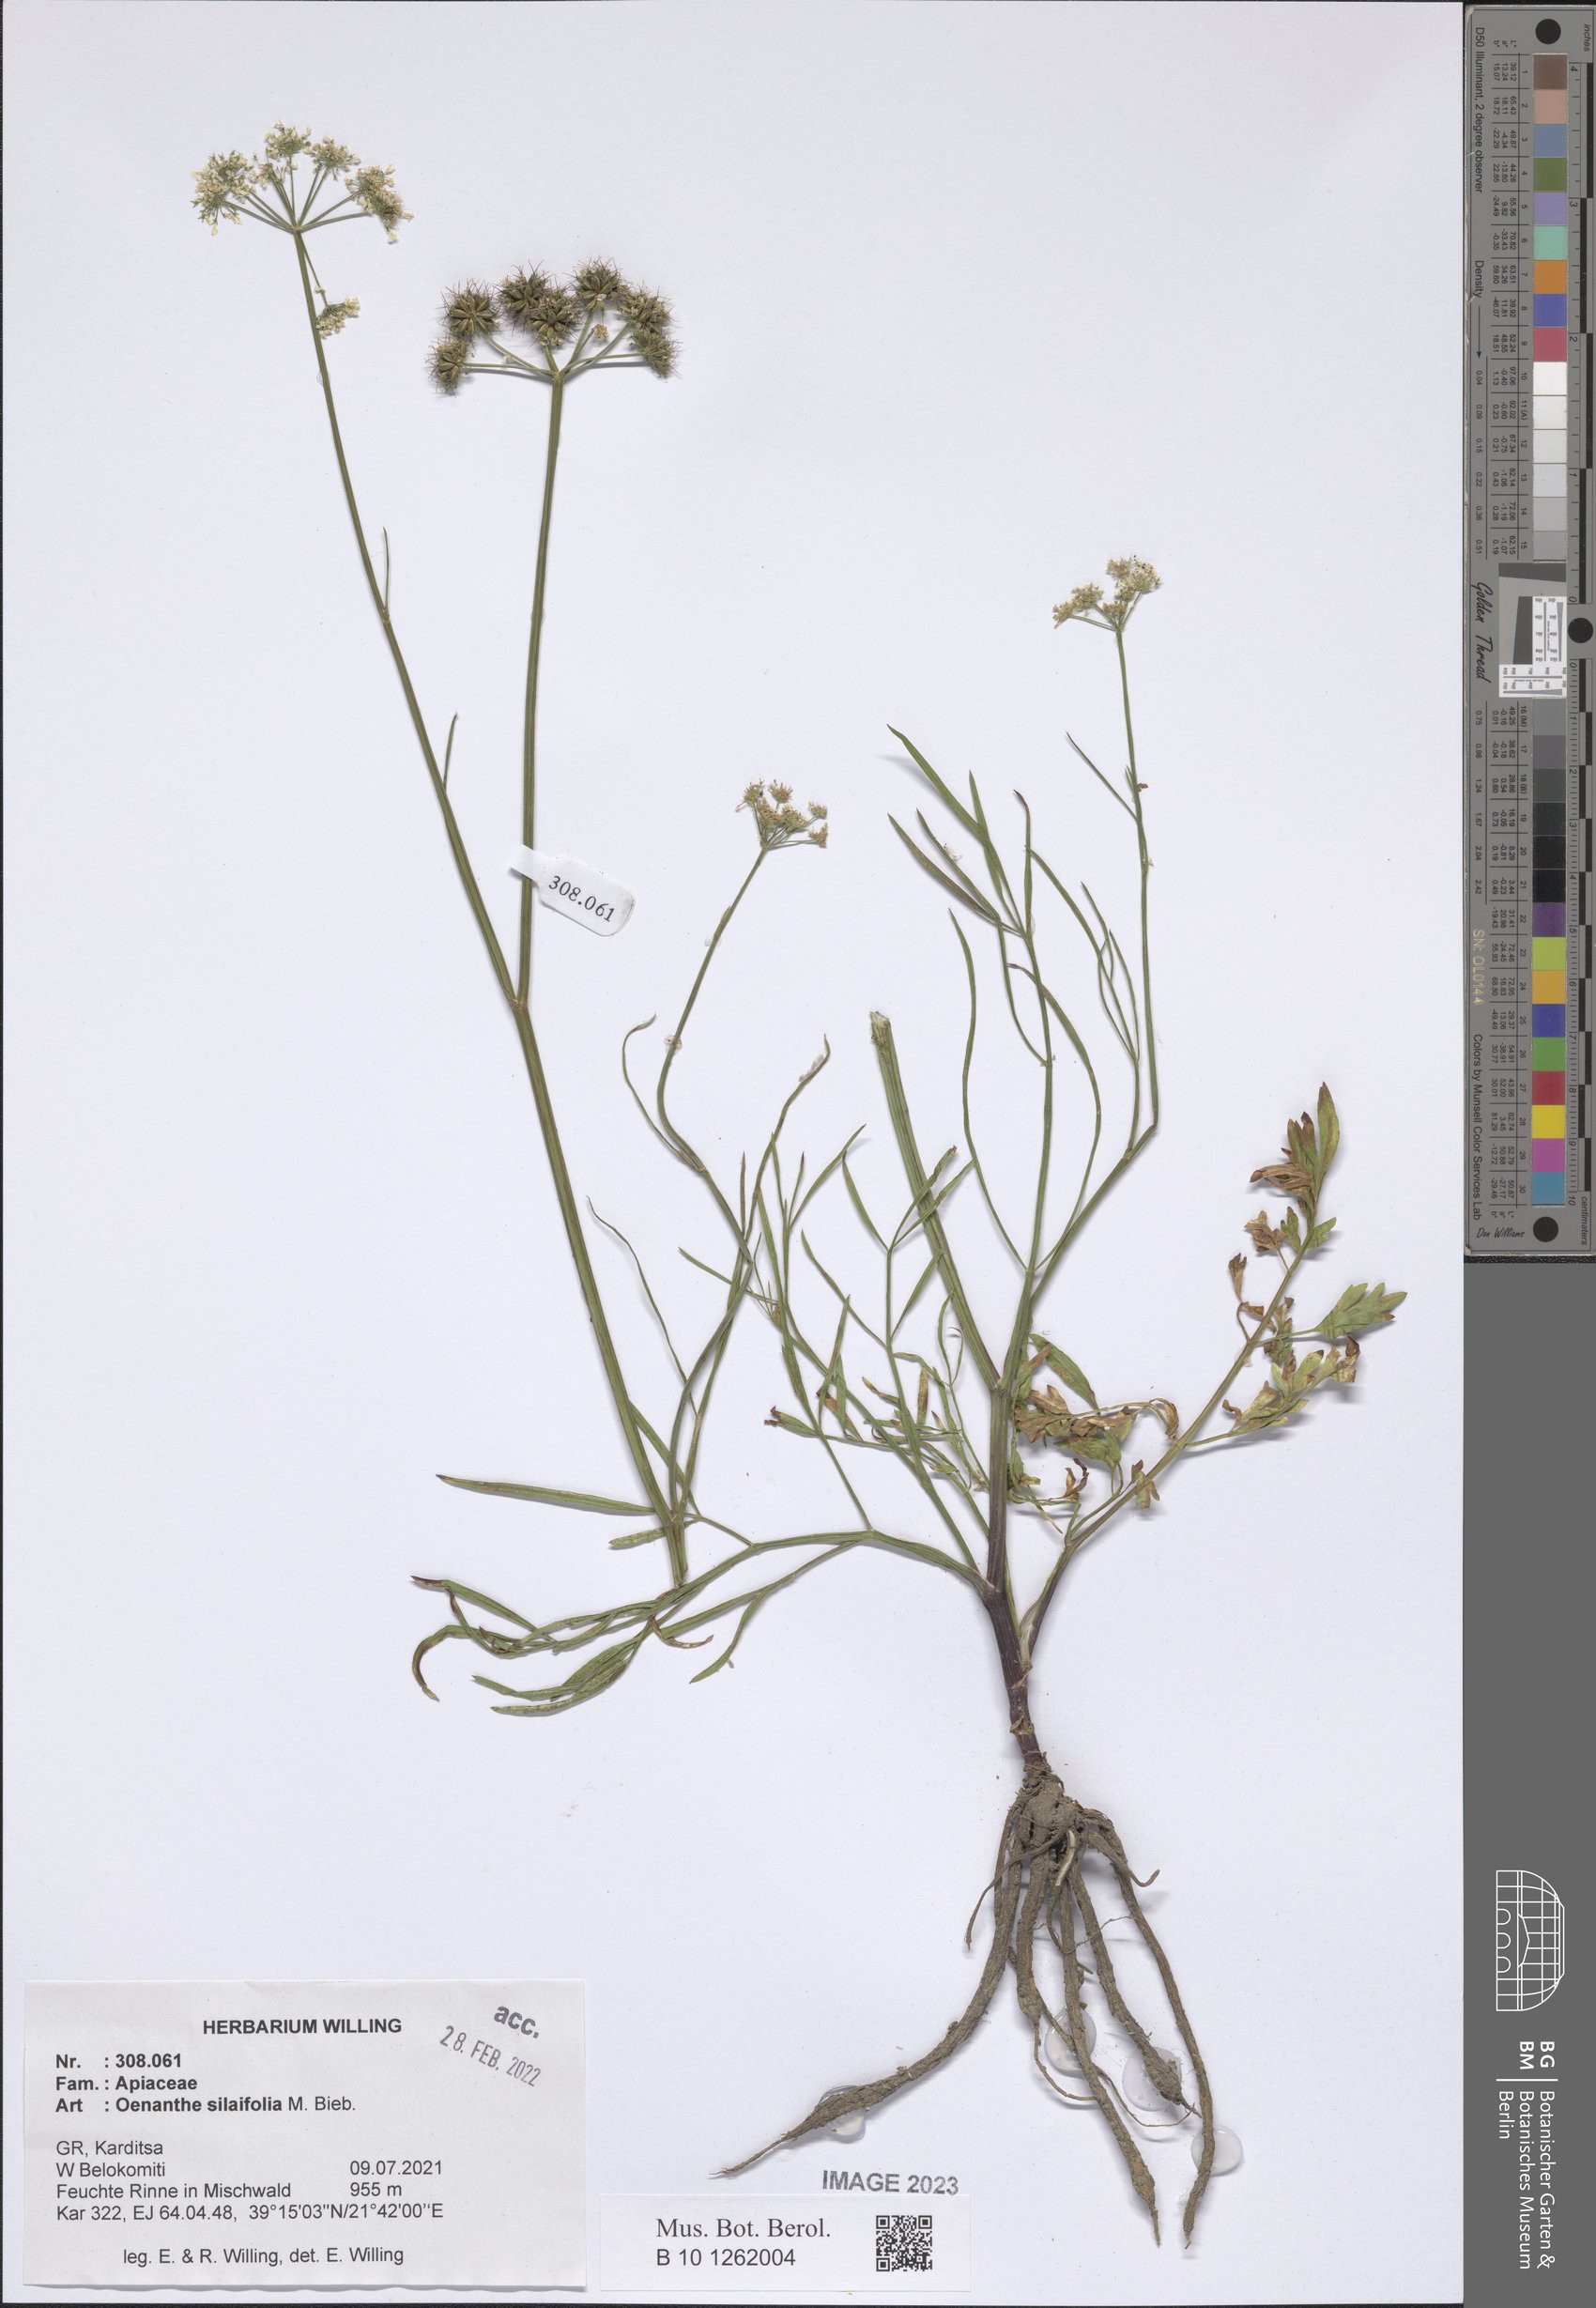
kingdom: Plantae
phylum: Tracheophyta
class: Magnoliopsida
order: Apiales
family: Apiaceae
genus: Oenanthe
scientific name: Oenanthe silaifolia
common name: Narrow-leaved water-dropwort
